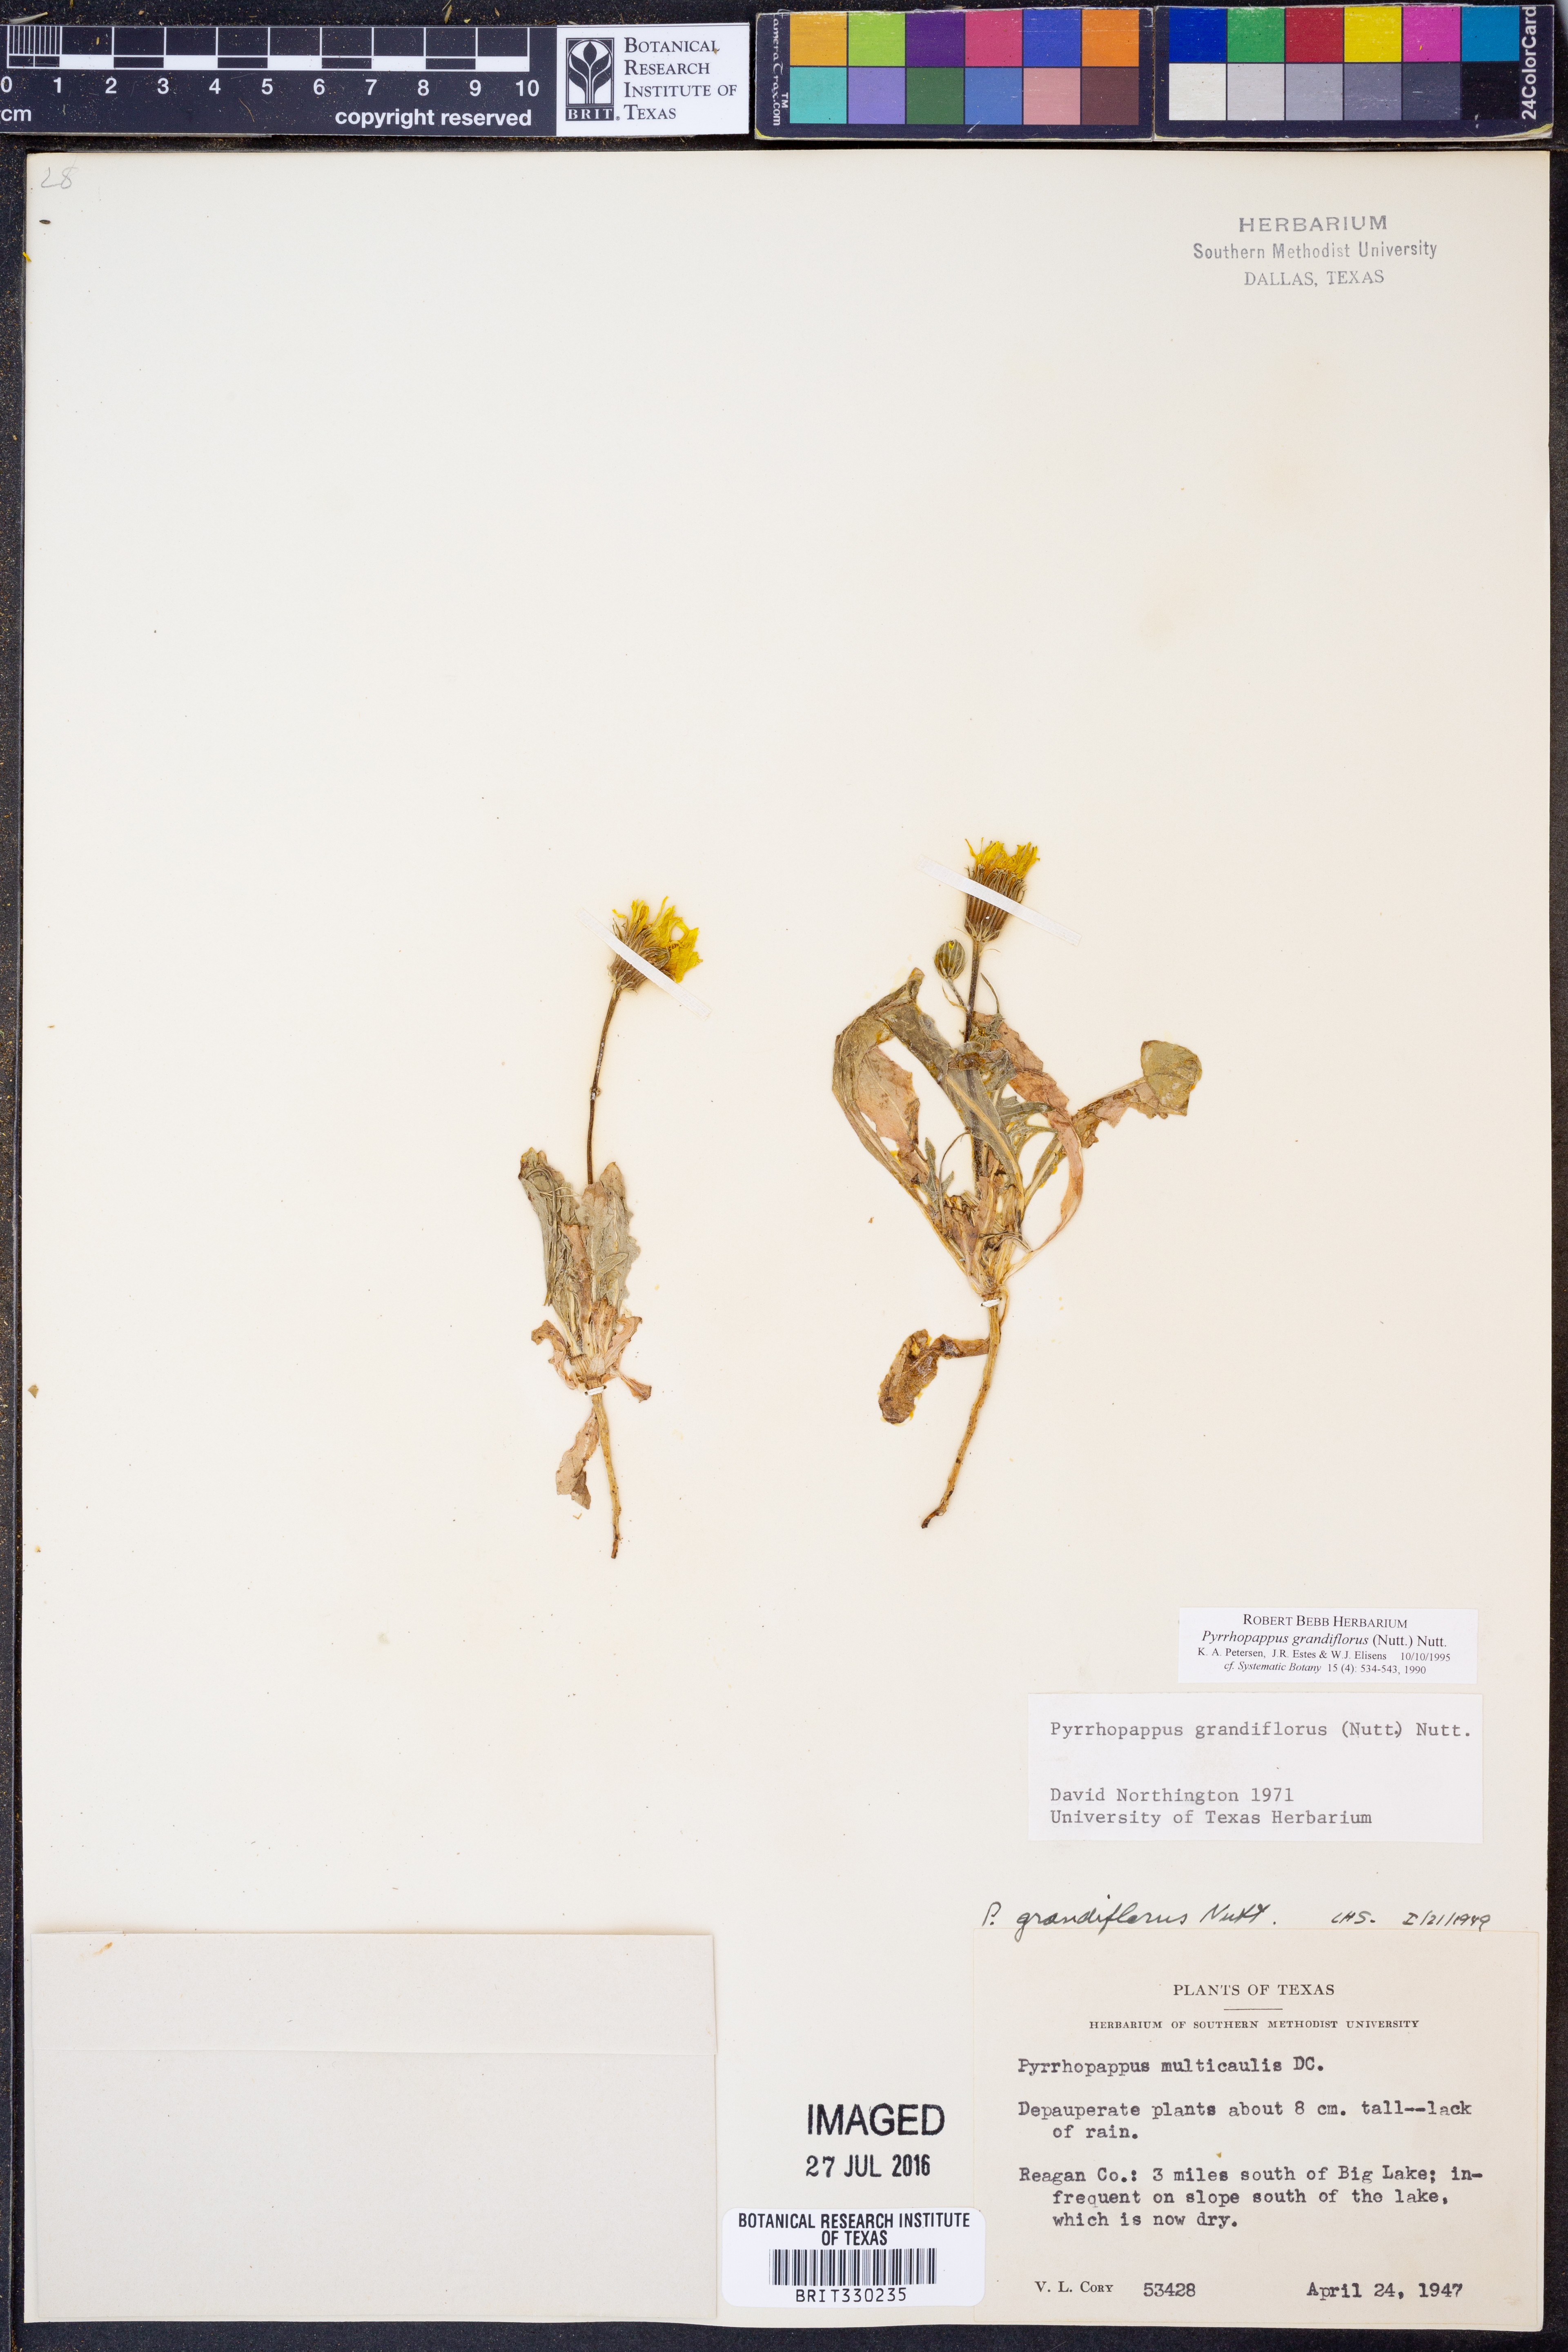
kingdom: Plantae
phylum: Tracheophyta
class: Magnoliopsida
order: Asterales
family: Asteraceae
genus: Pyrrhopappus
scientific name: Pyrrhopappus grandiflorus
